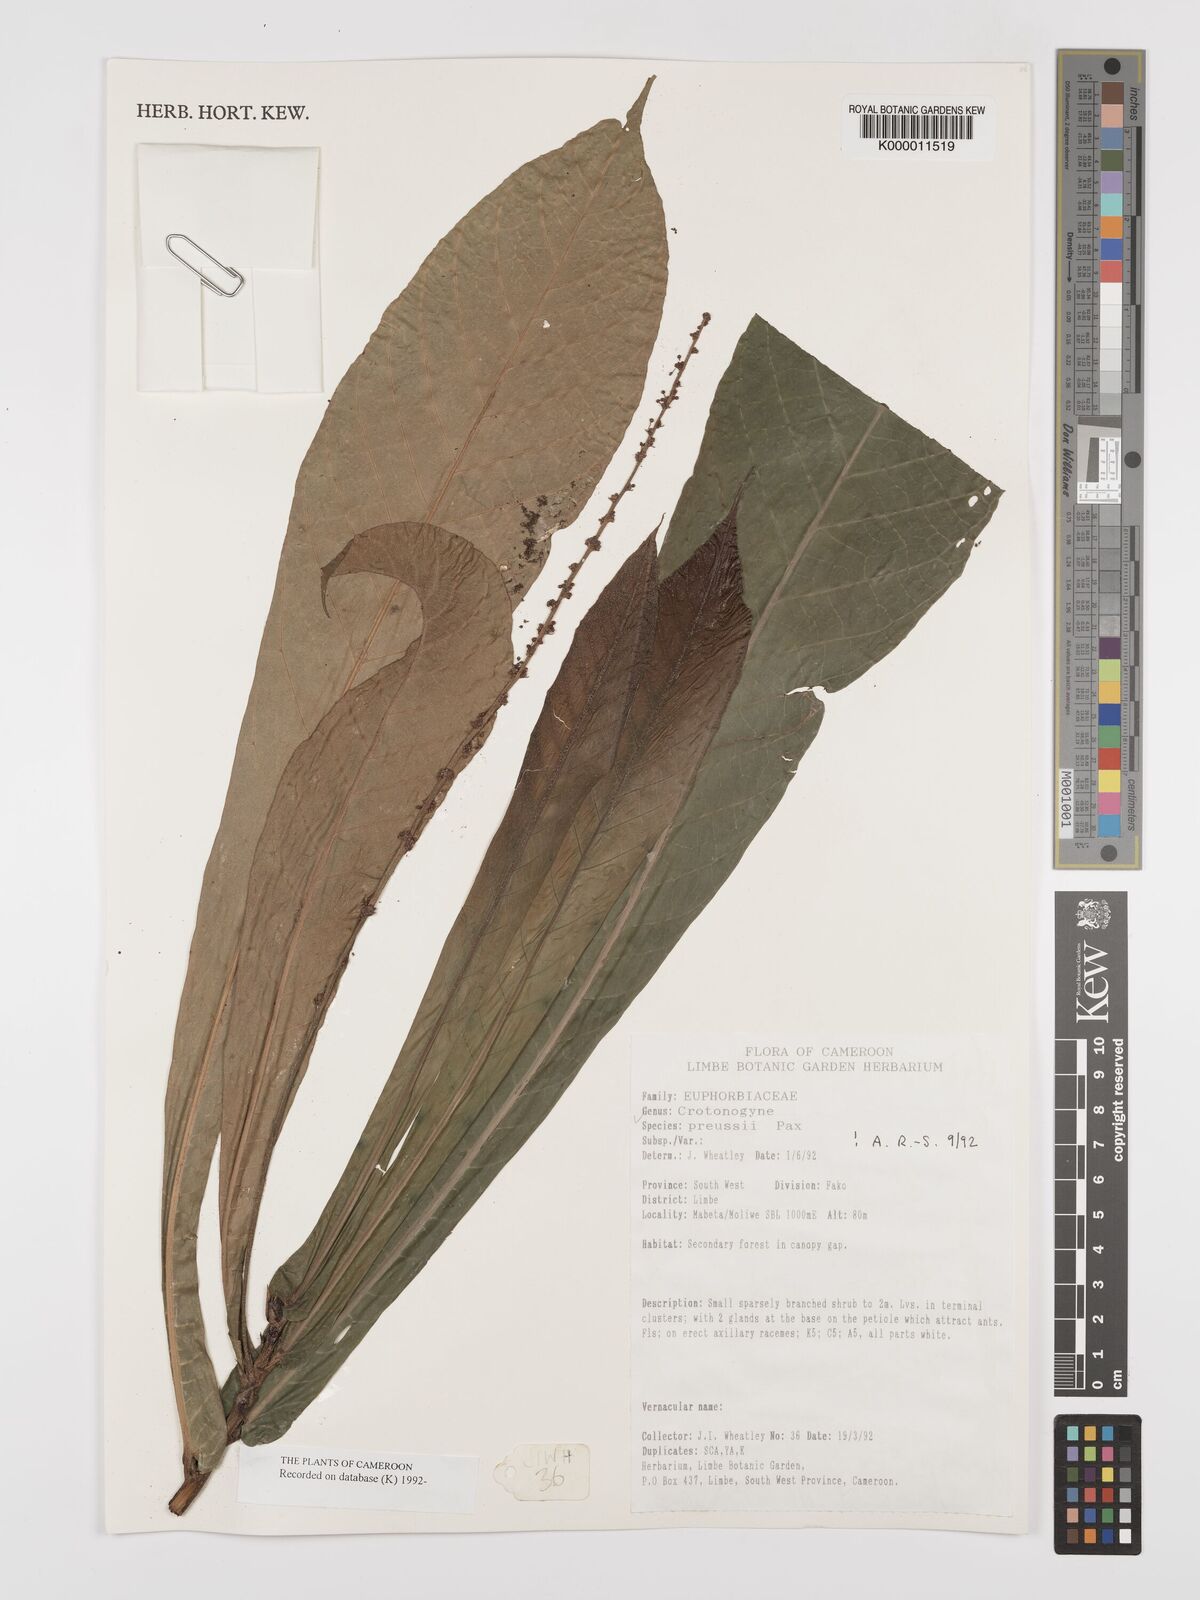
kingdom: Plantae
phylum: Tracheophyta
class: Magnoliopsida
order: Malpighiales
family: Euphorbiaceae
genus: Crotonogyne
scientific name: Crotonogyne preussii
